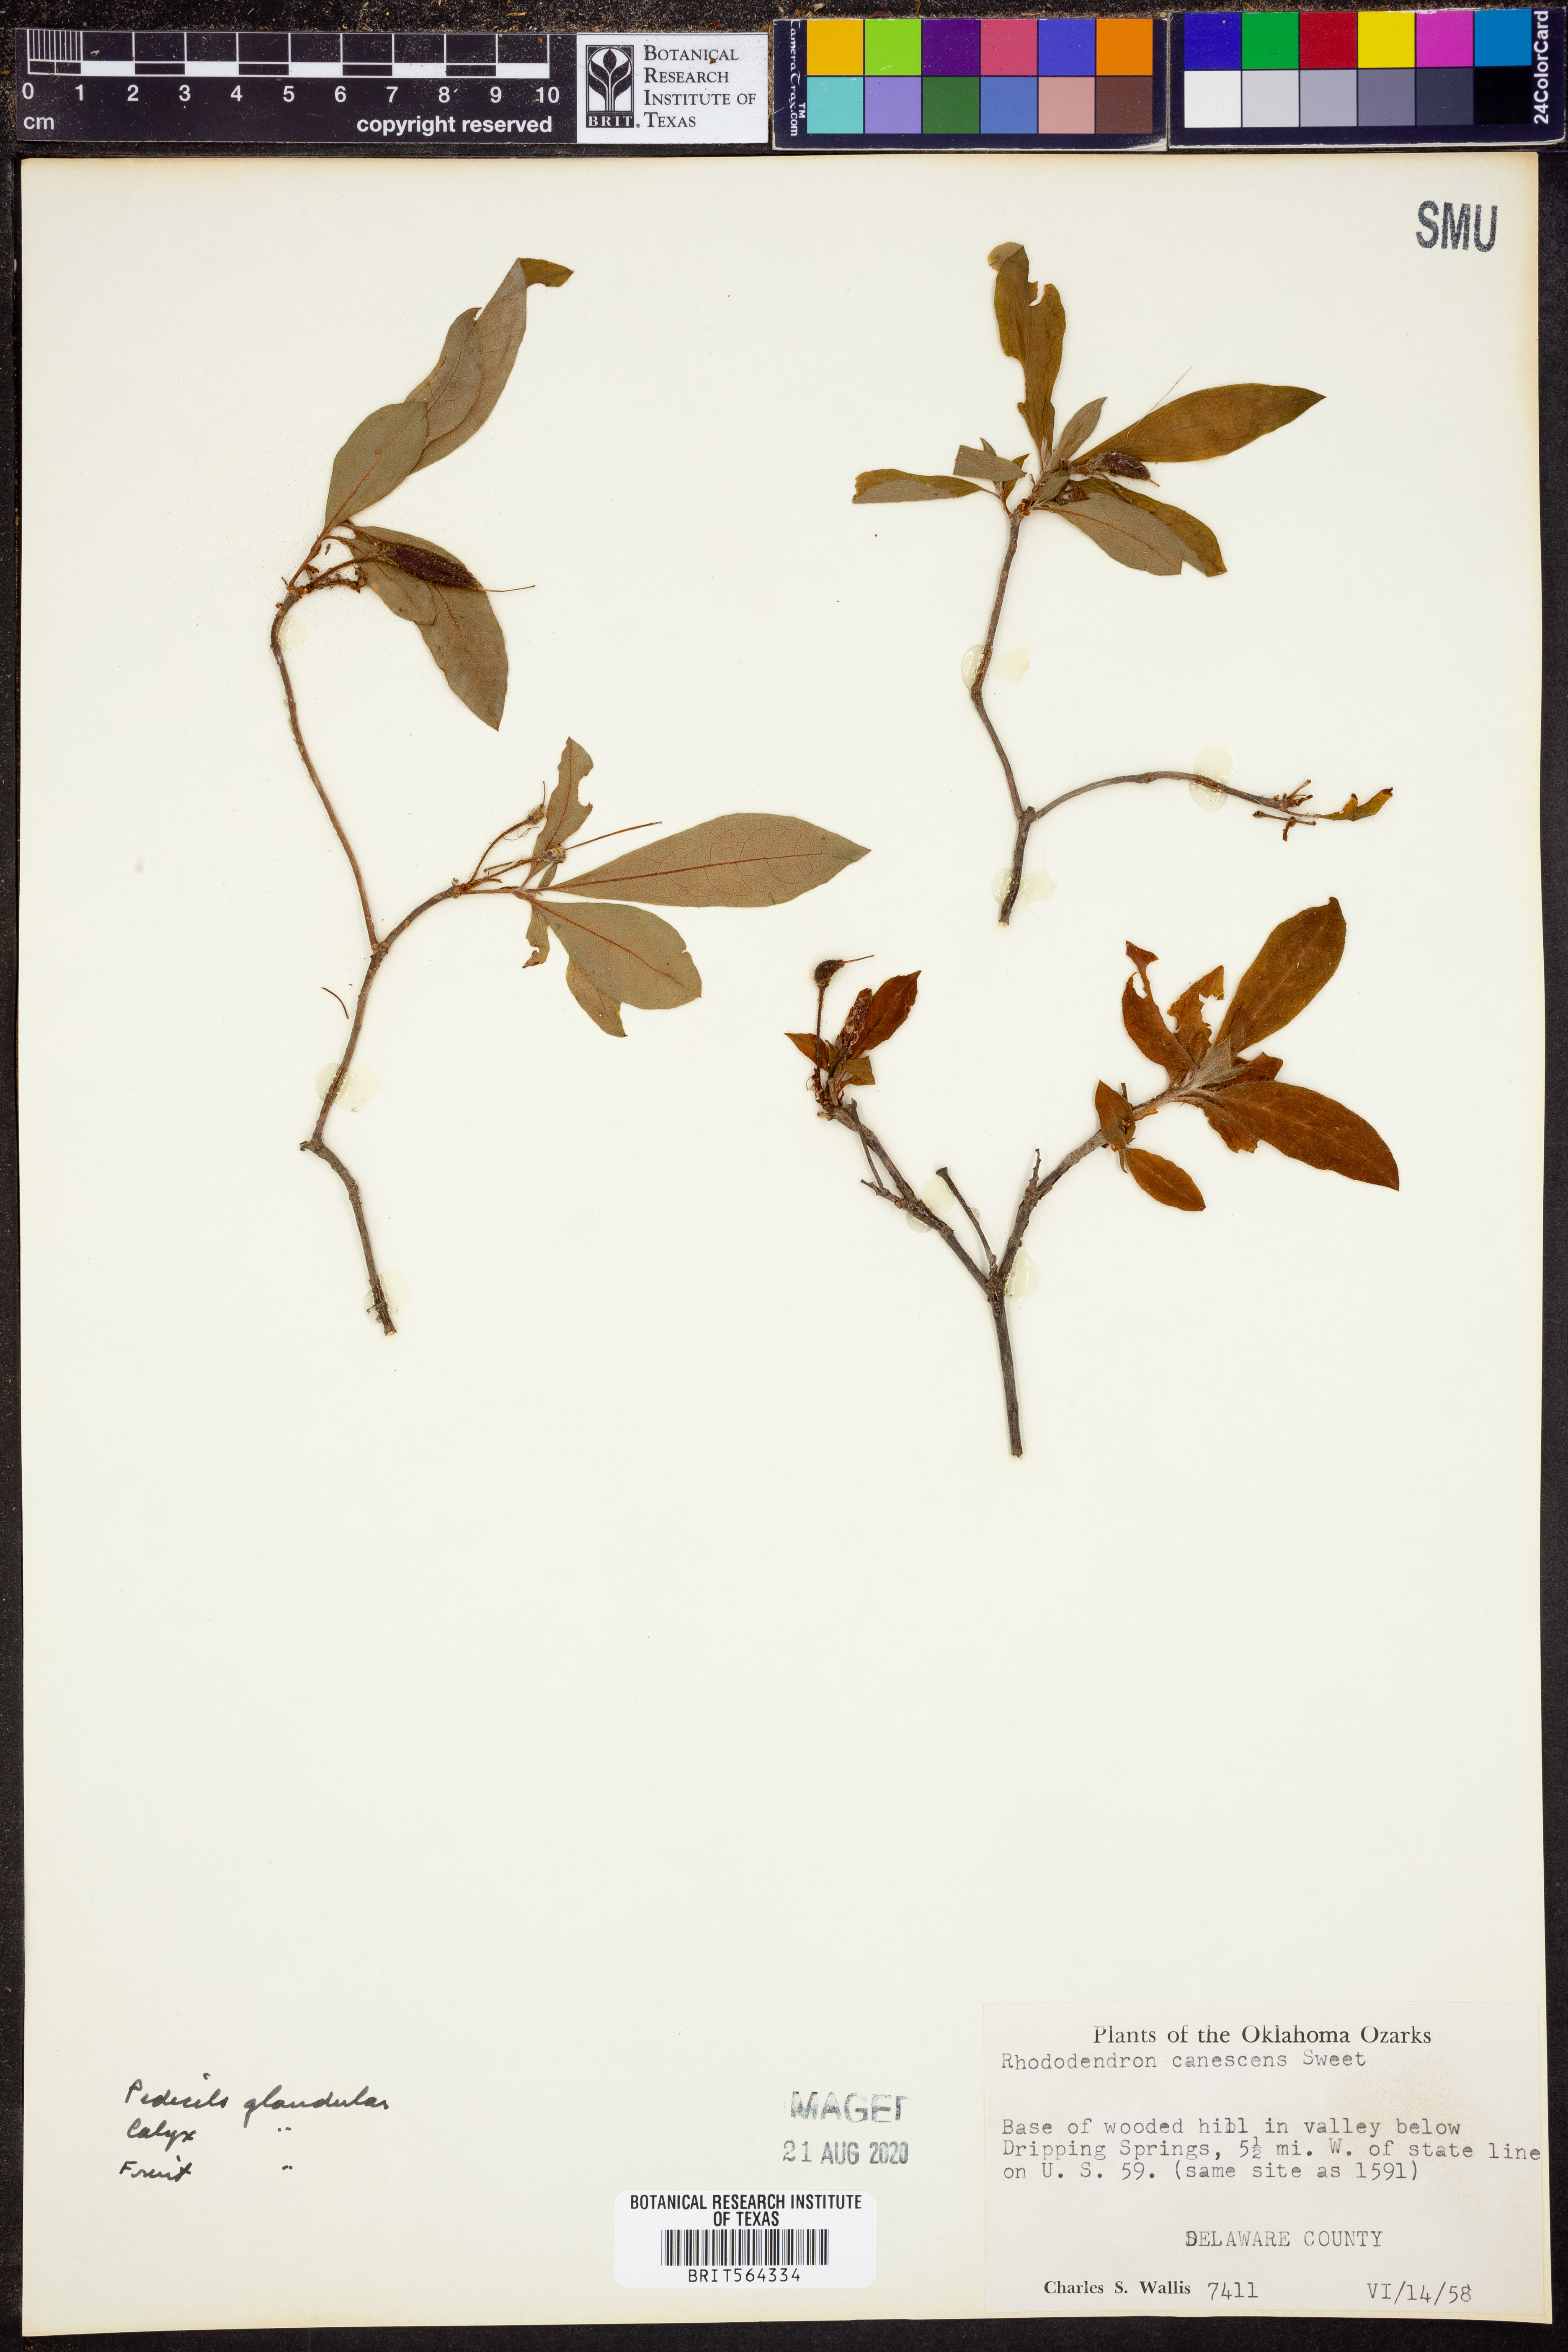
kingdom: Plantae
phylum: Tracheophyta
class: Magnoliopsida
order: Ericales
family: Ericaceae
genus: Rhododendron
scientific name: Rhododendron canescens
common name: Mountain azalea
